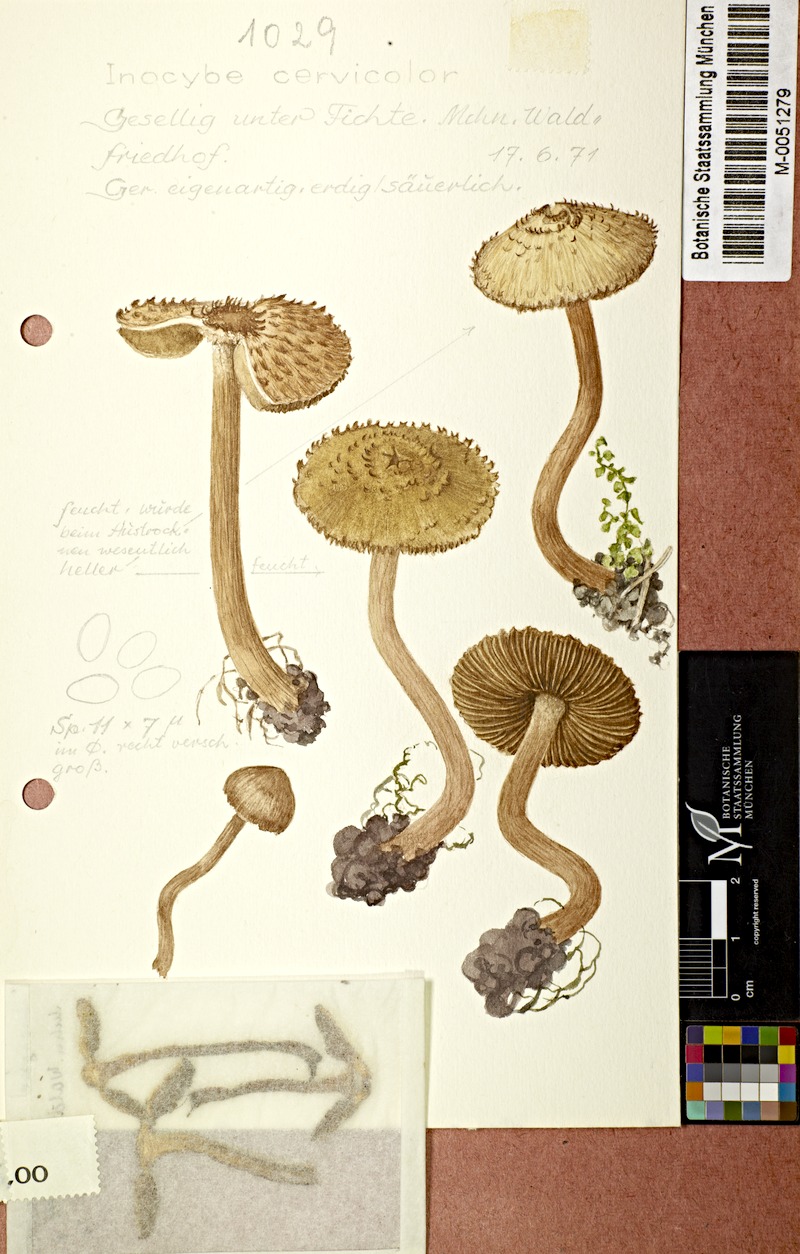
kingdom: Fungi
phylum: Basidiomycota
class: Agaricomycetes
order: Agaricales
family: Inocybaceae
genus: Inosperma
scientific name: Inosperma cervicolor
